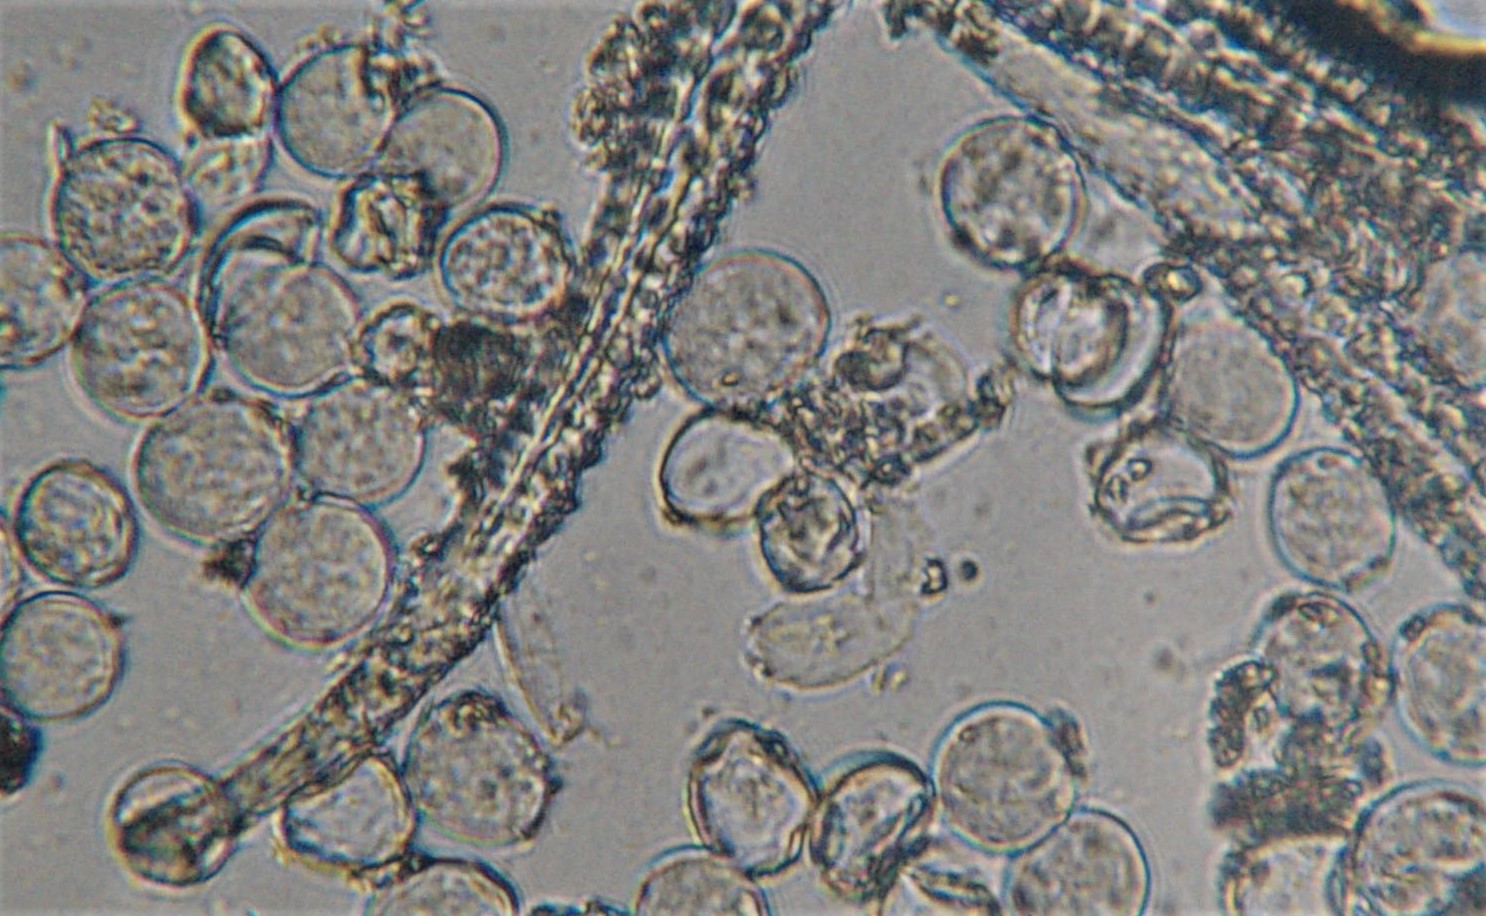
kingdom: Chromista
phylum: Oomycota
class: Peronosporea
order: Albuginales
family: Albuginaceae
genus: Albugo
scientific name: Albugo candida
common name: Crucifer white blister
